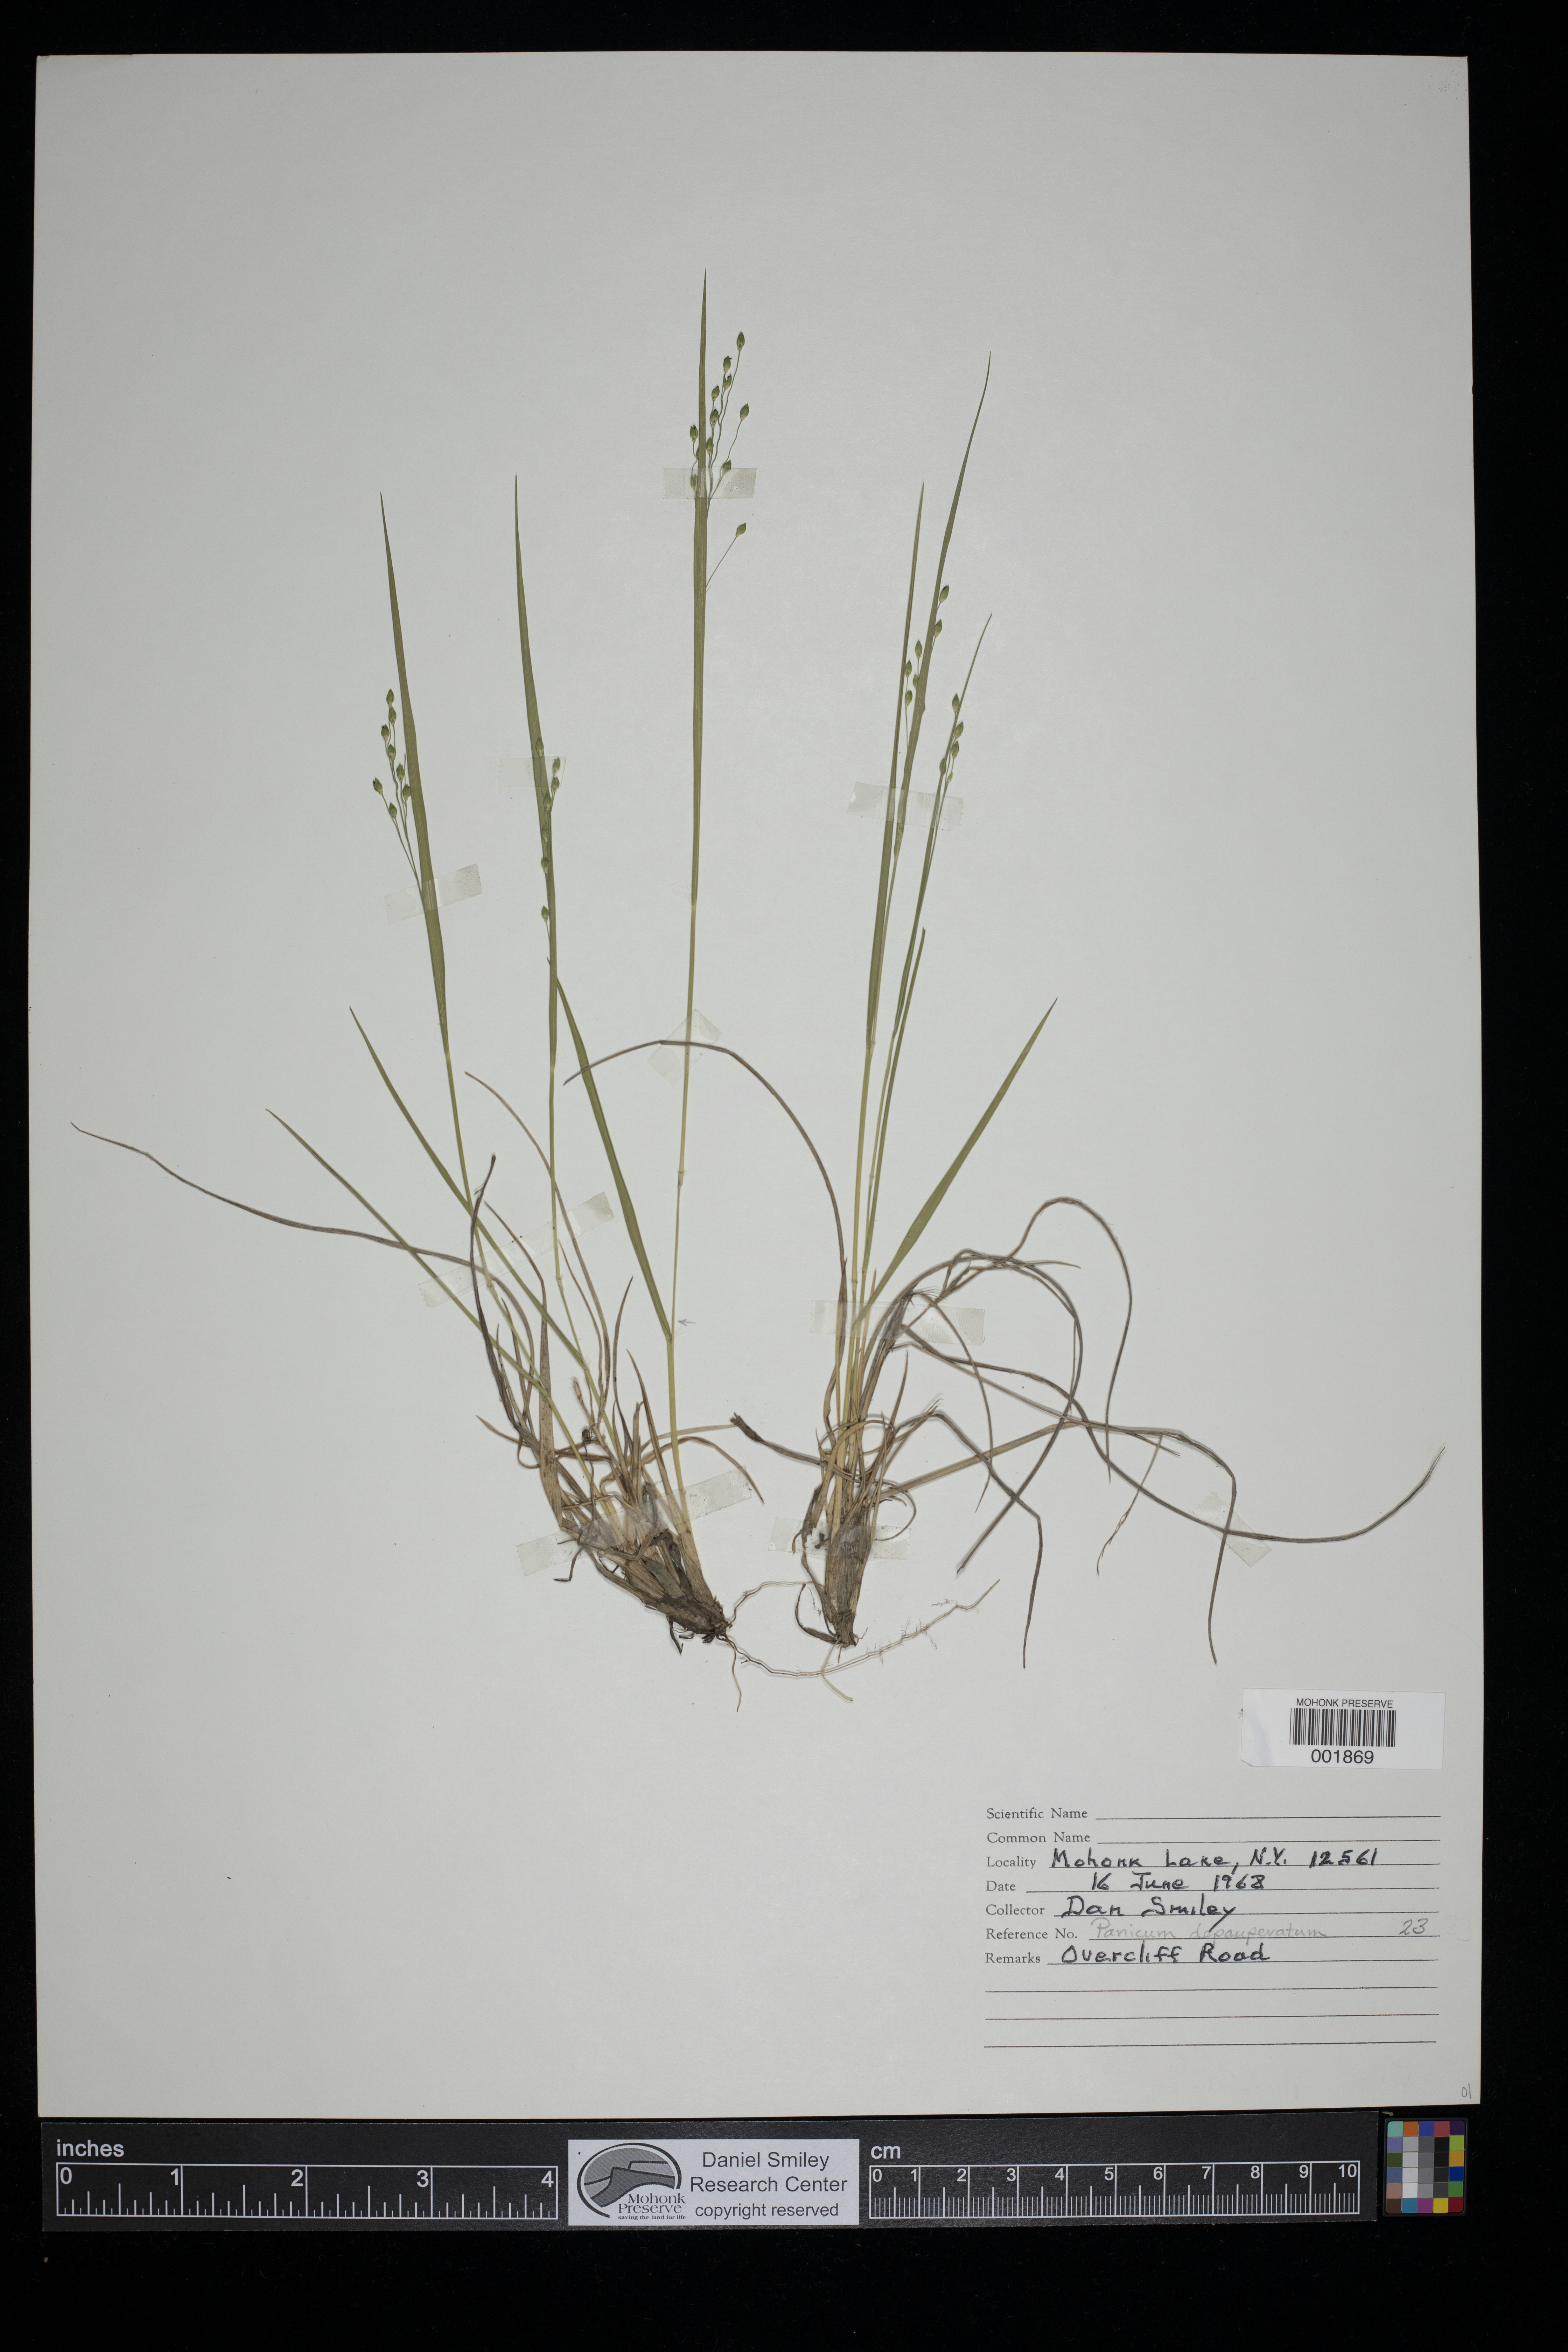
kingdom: Plantae
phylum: Tracheophyta
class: Liliopsida
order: Poales
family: Poaceae
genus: Dichanthelium
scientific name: Dichanthelium depauperatum
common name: Depauperate panicgrass
